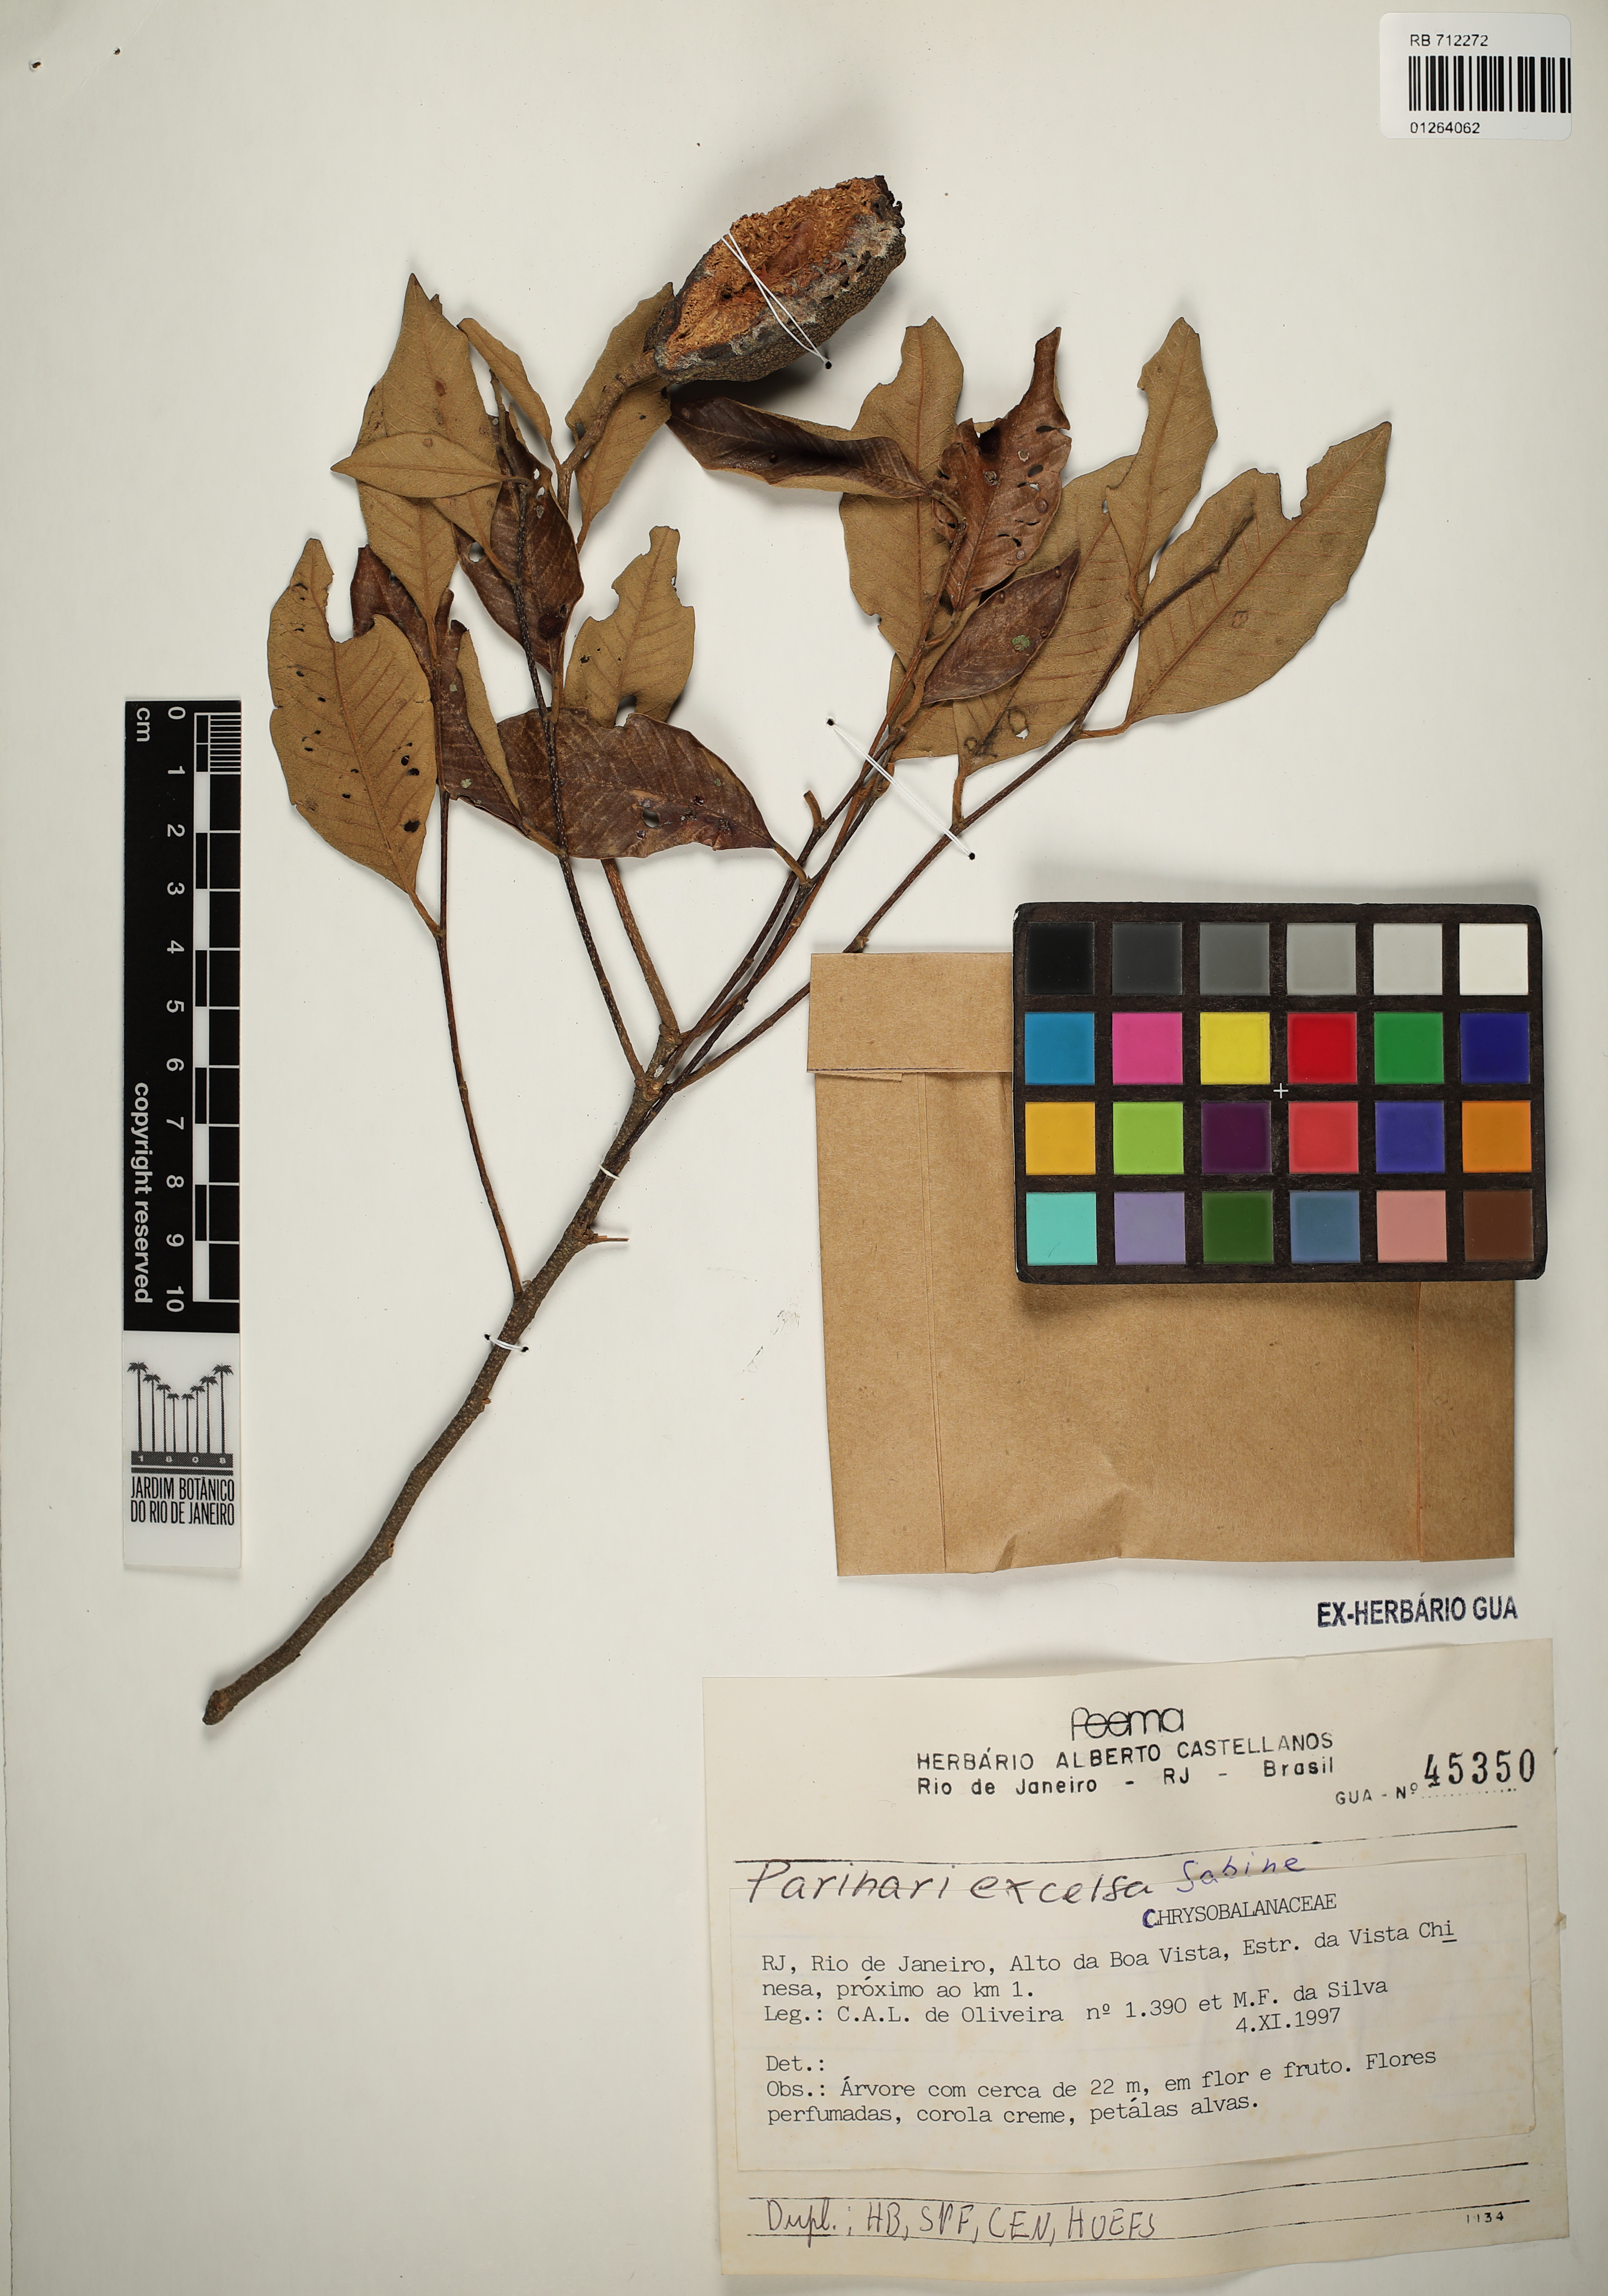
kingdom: Plantae
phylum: Tracheophyta
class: Magnoliopsida
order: Malpighiales
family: Chrysobalanaceae
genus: Parinari
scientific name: Parinari excelsa
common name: Guinea-plum
